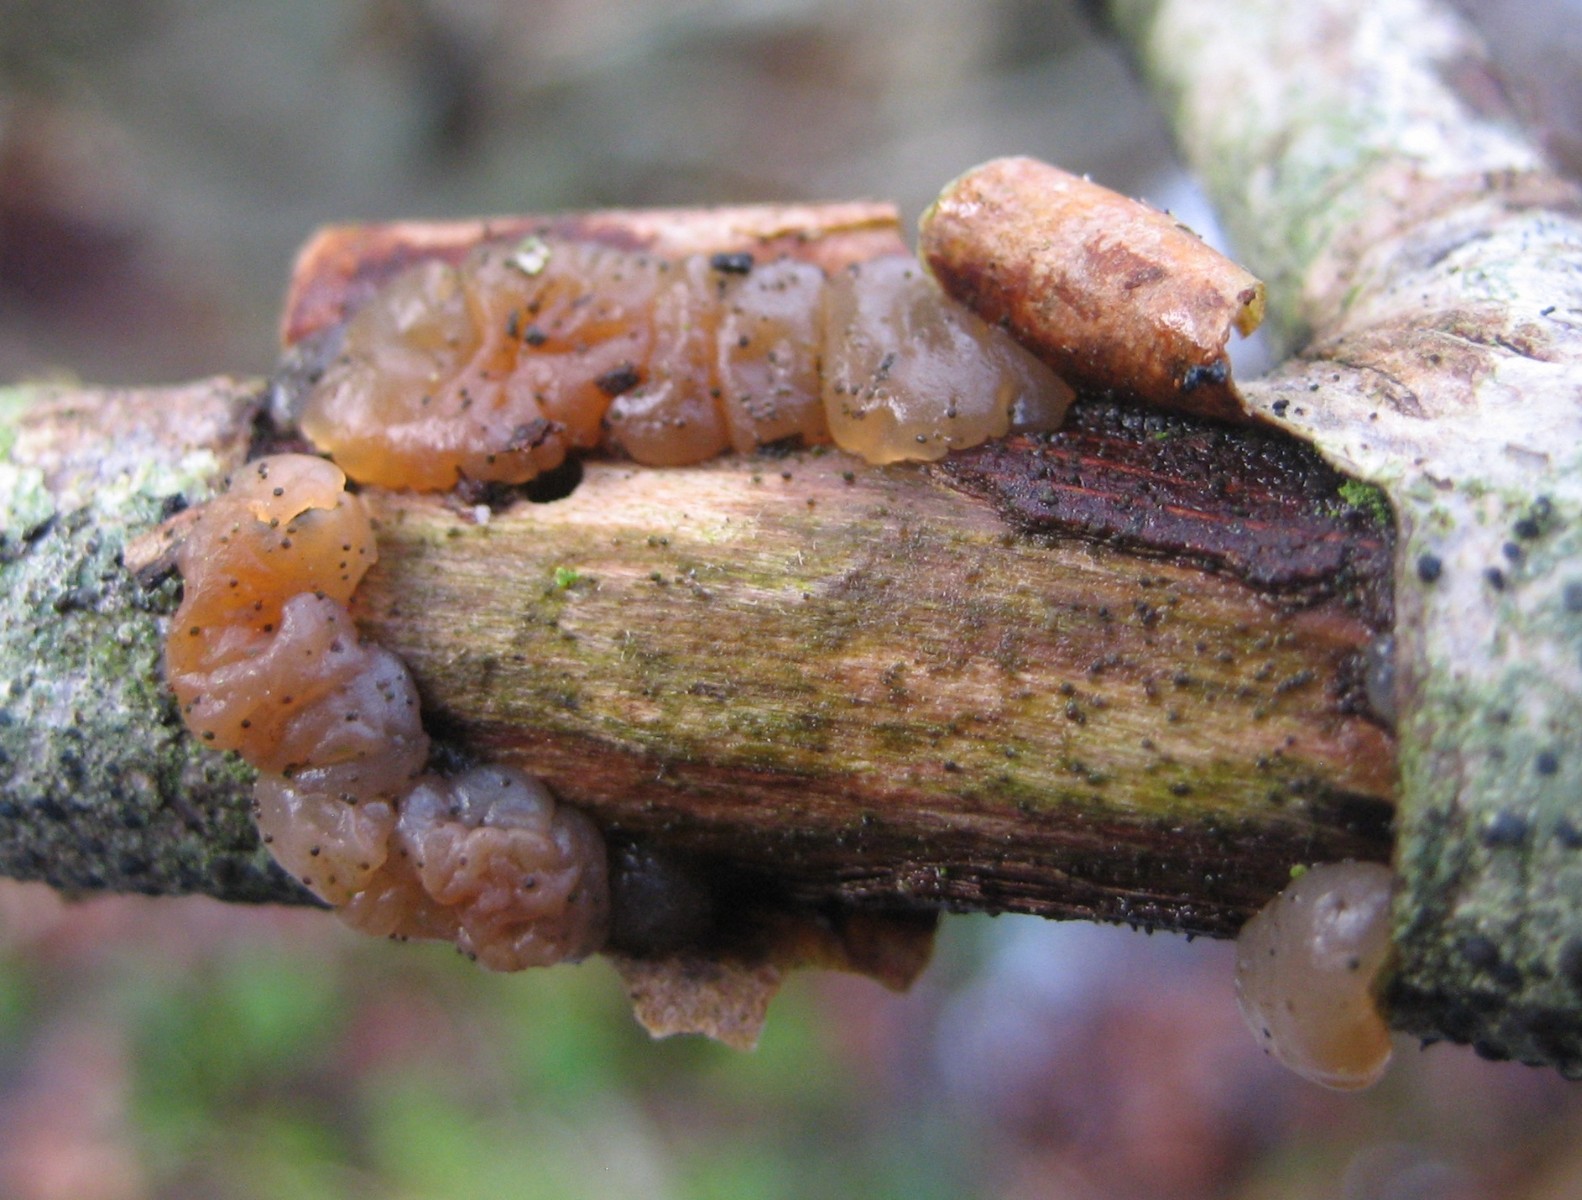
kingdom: Fungi
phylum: Basidiomycota
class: Agaricomycetes
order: Auriculariales
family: Hyaloriaceae
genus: Myxarium
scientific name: Myxarium
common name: bævretop
